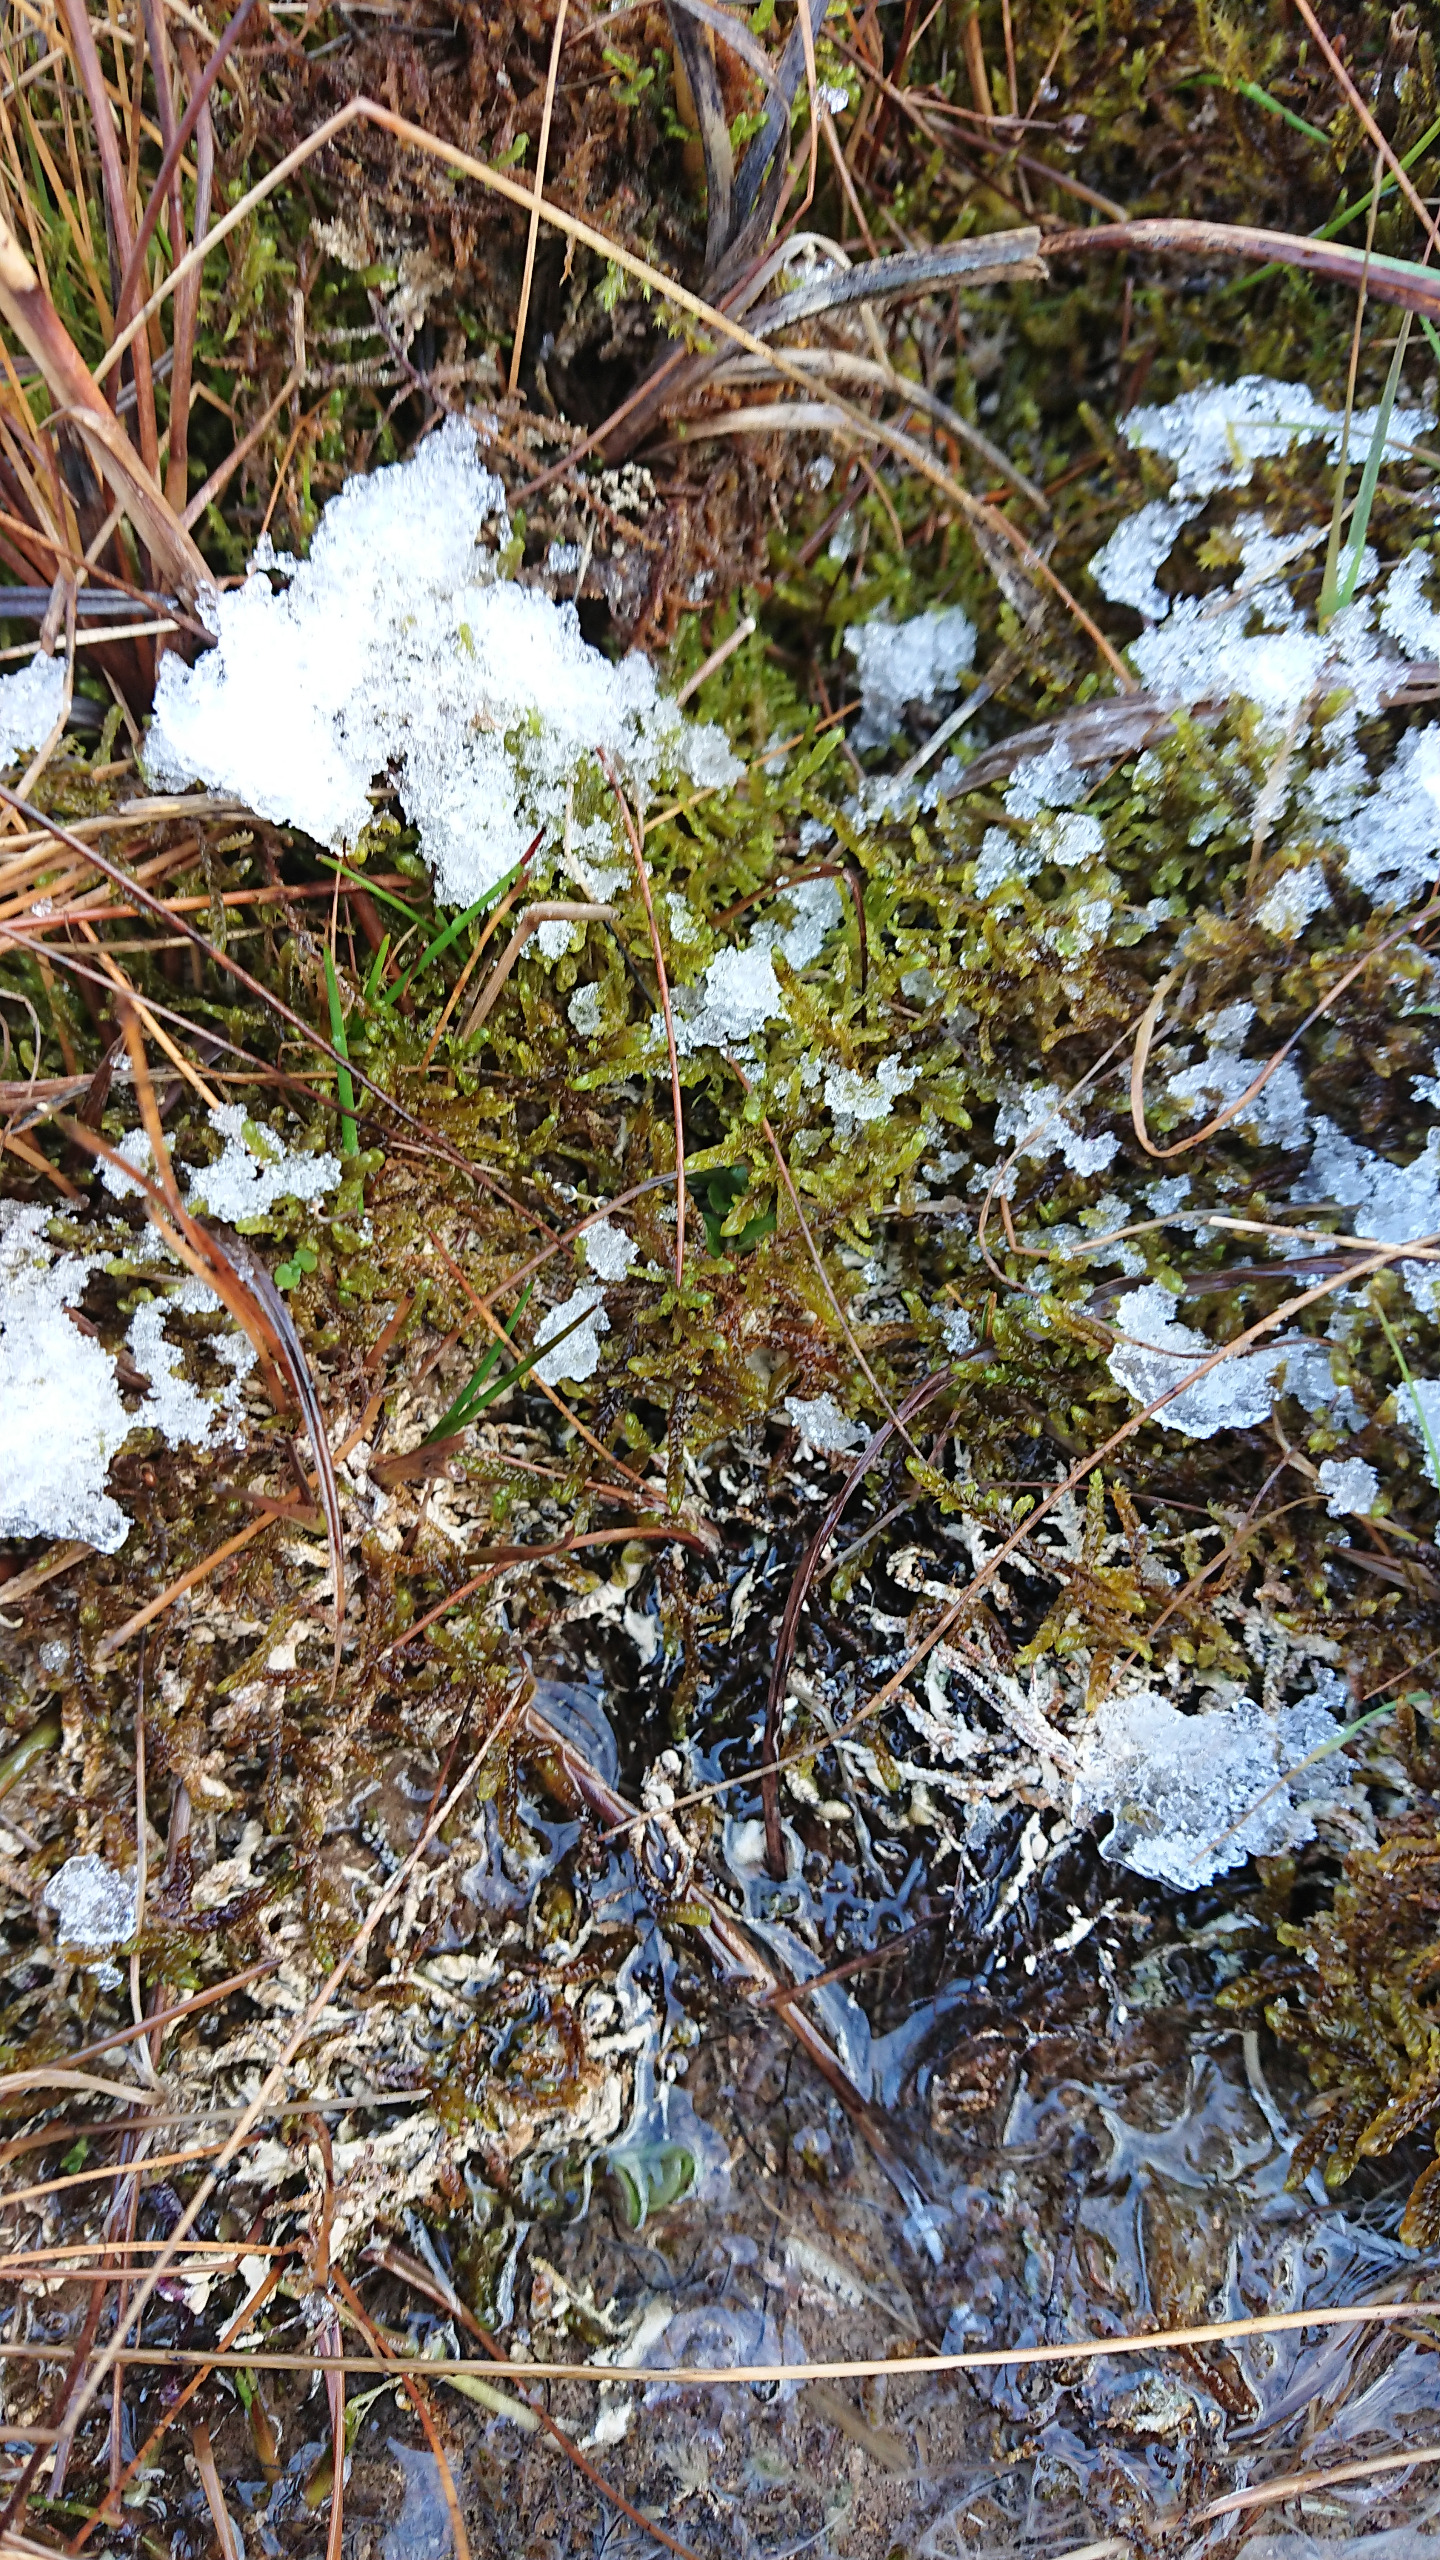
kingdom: Plantae
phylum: Bryophyta
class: Bryopsida
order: Hypnales
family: Scorpidiaceae
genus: Scorpidium
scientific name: Scorpidium cossonii
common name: Grøn krumblad
